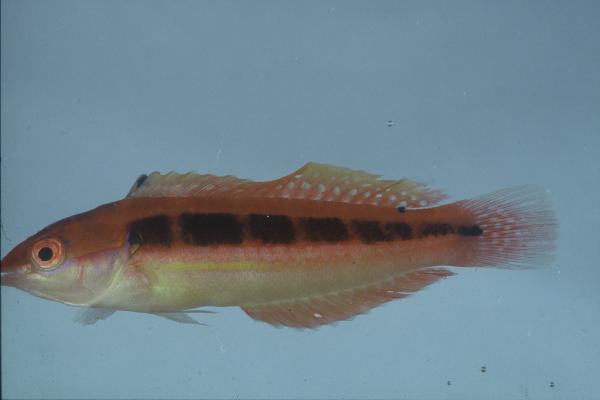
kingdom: Animalia
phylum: Chordata
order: Perciformes
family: Labridae
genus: Coris
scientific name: Coris caudimacula
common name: Spottail coris
